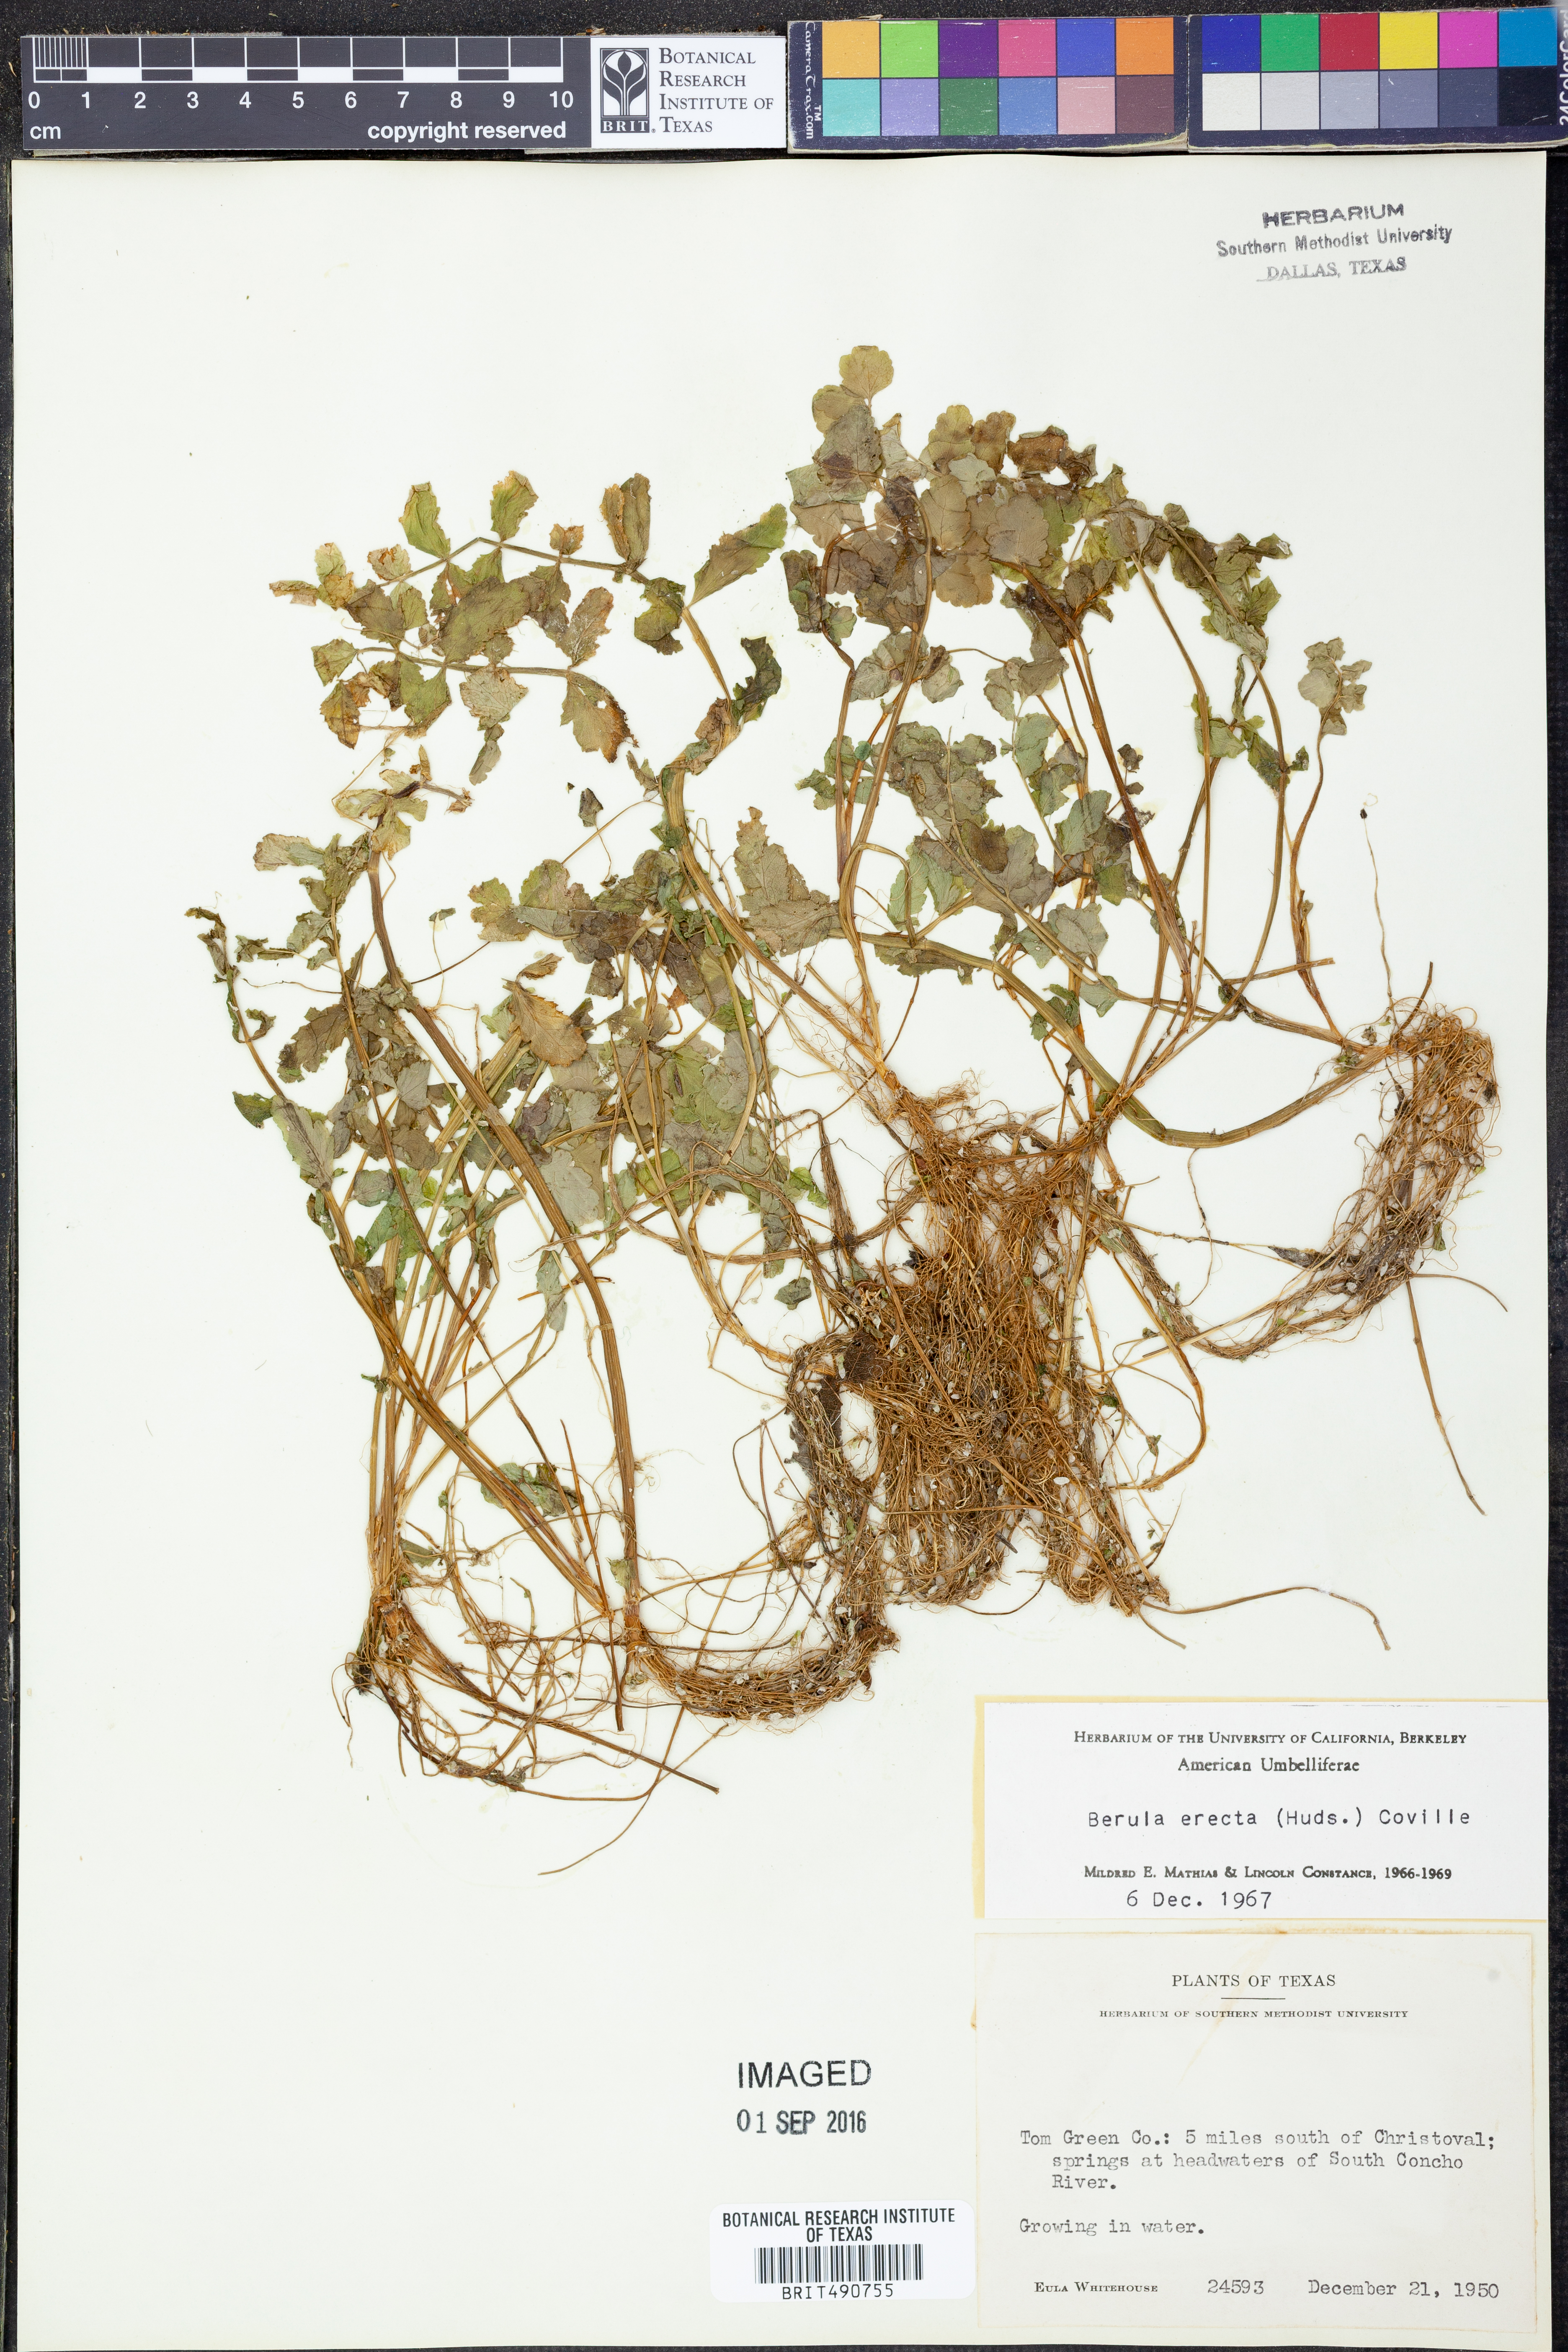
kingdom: Plantae
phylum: Tracheophyta
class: Magnoliopsida
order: Apiales
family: Apiaceae
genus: Berula
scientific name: Berula erecta
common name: Lesser water-parsnip
